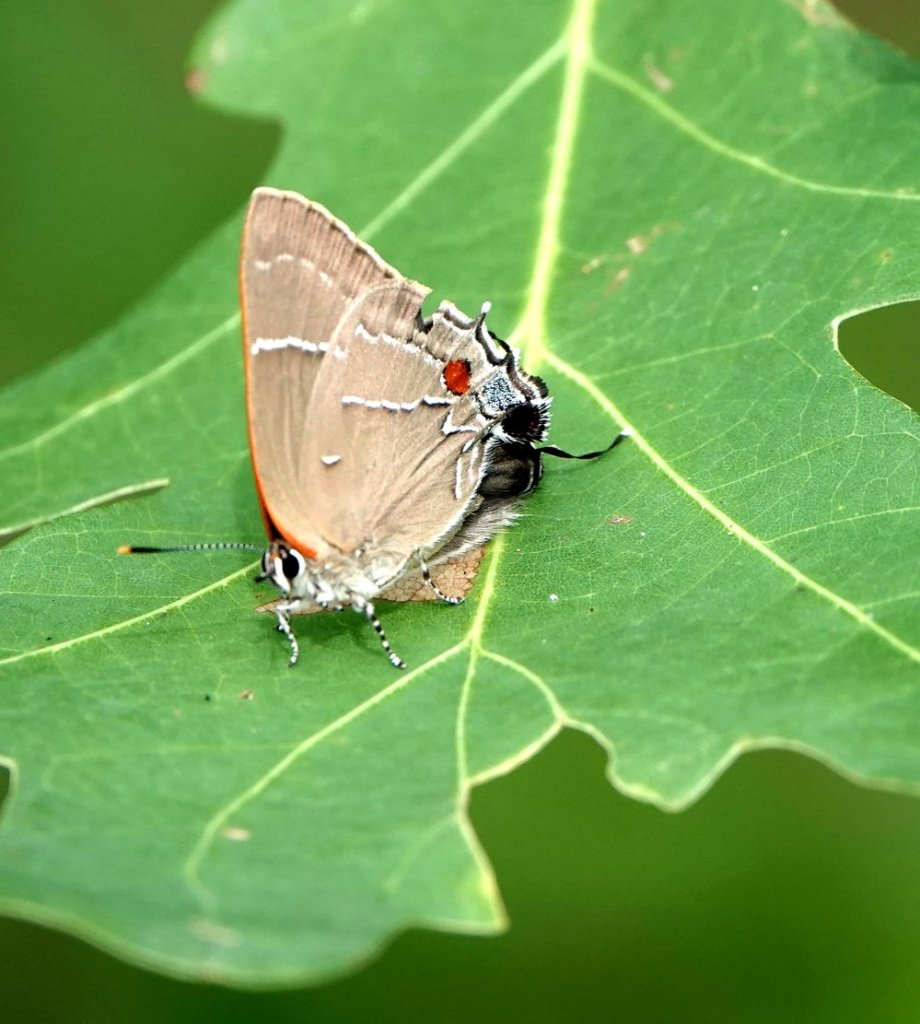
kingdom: Animalia
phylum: Arthropoda
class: Insecta
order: Lepidoptera
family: Lycaenidae
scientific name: Lycaenidae
